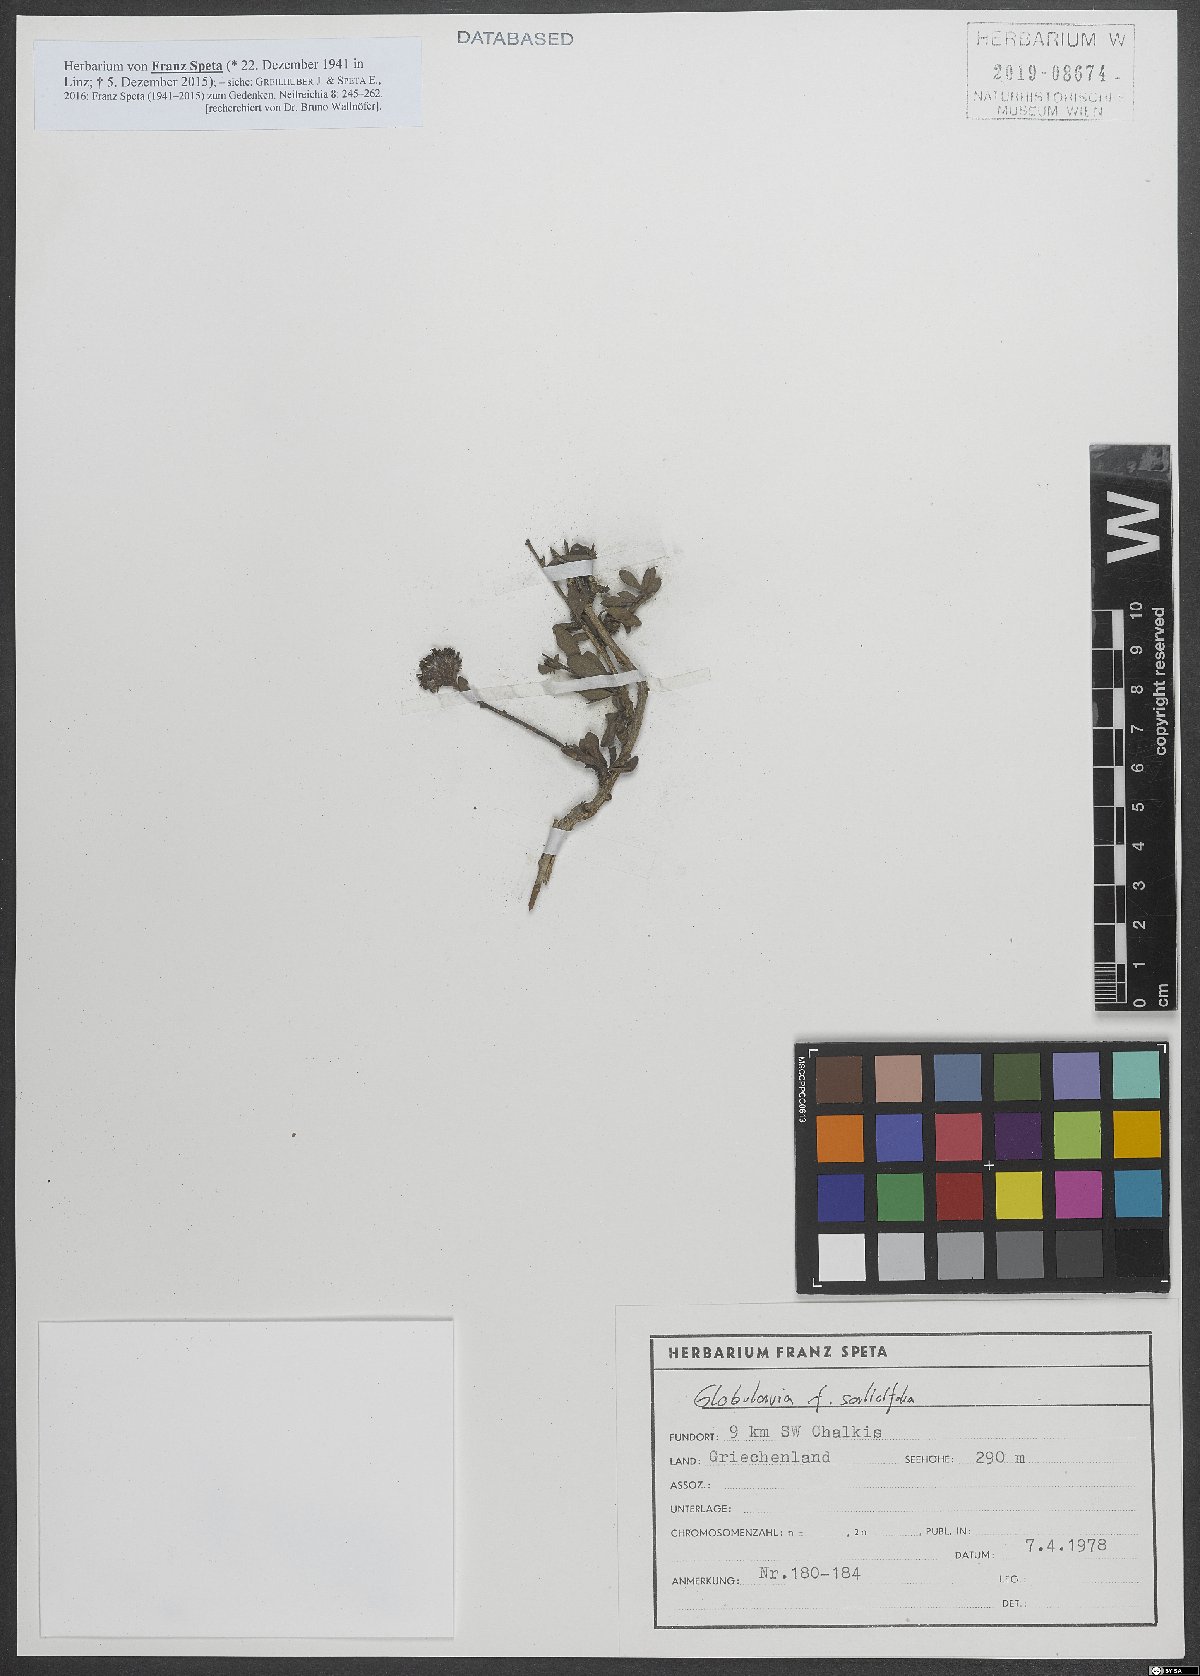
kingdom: Plantae
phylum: Tracheophyta
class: Magnoliopsida
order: Lamiales
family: Plantaginaceae
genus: Globularia
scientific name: Globularia salicina
